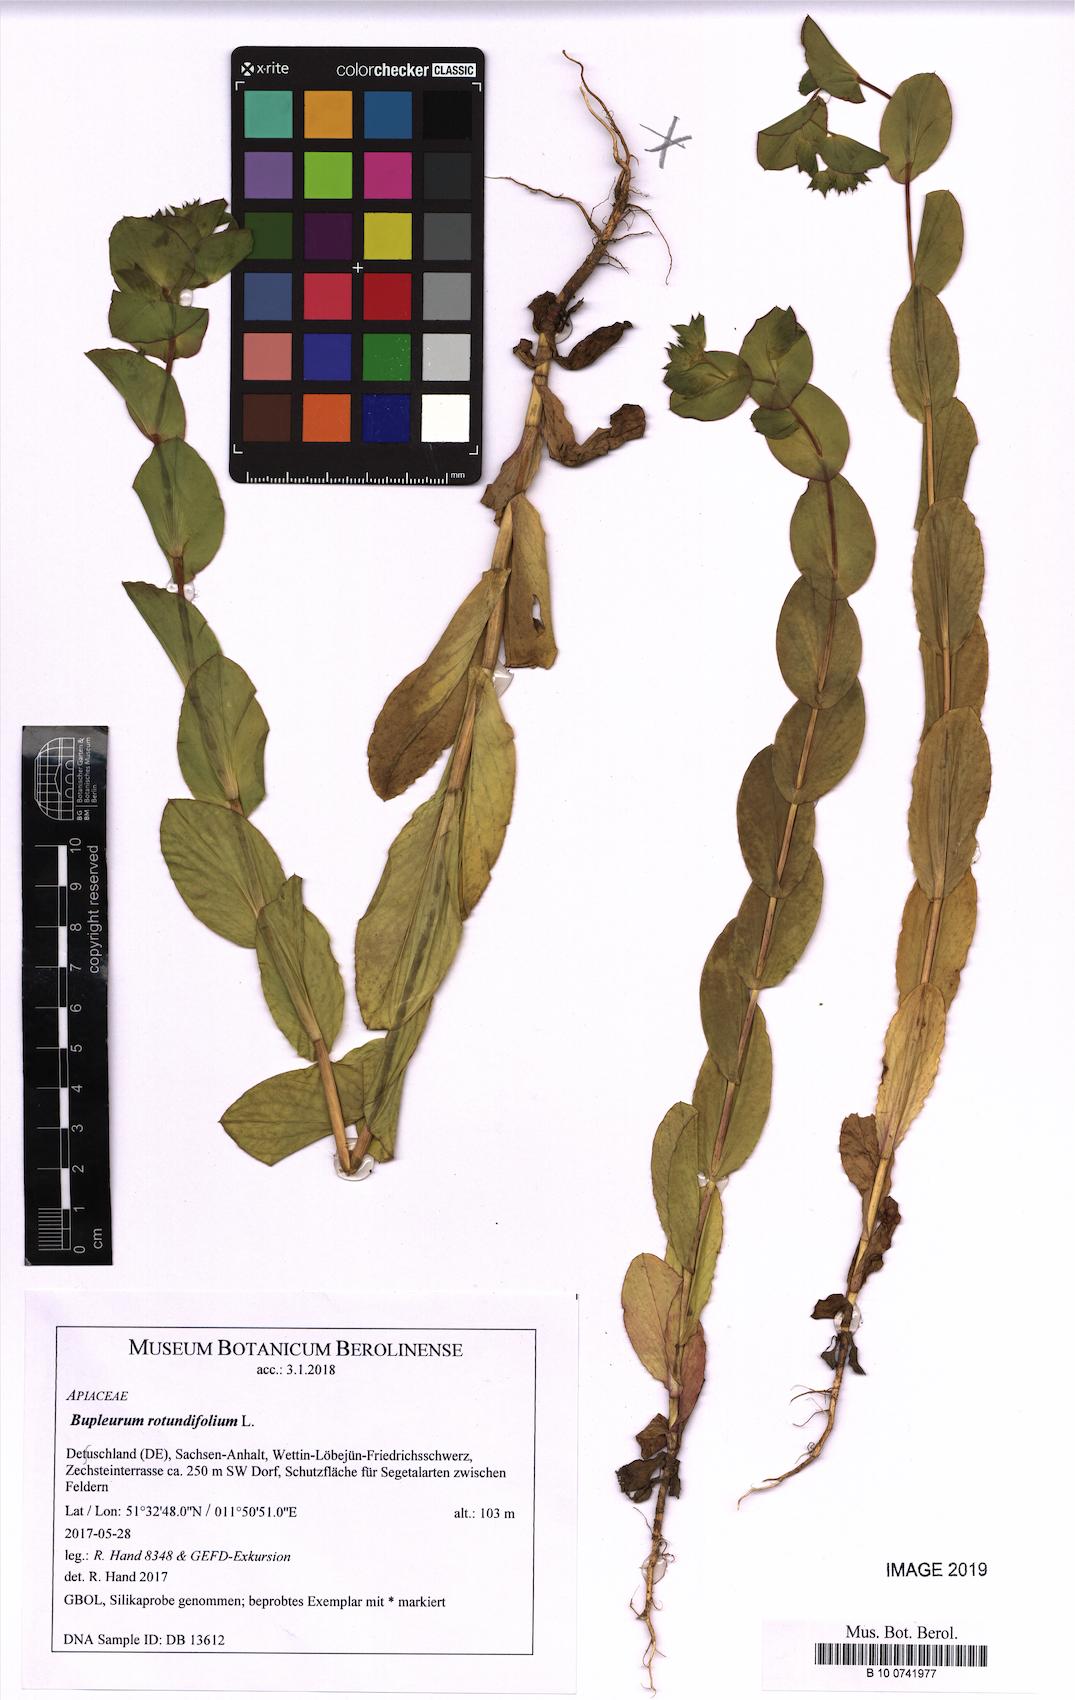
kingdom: Plantae
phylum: Tracheophyta
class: Magnoliopsida
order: Apiales
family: Apiaceae
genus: Bupleurum
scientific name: Bupleurum rotundifolium
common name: Thorow-wax
